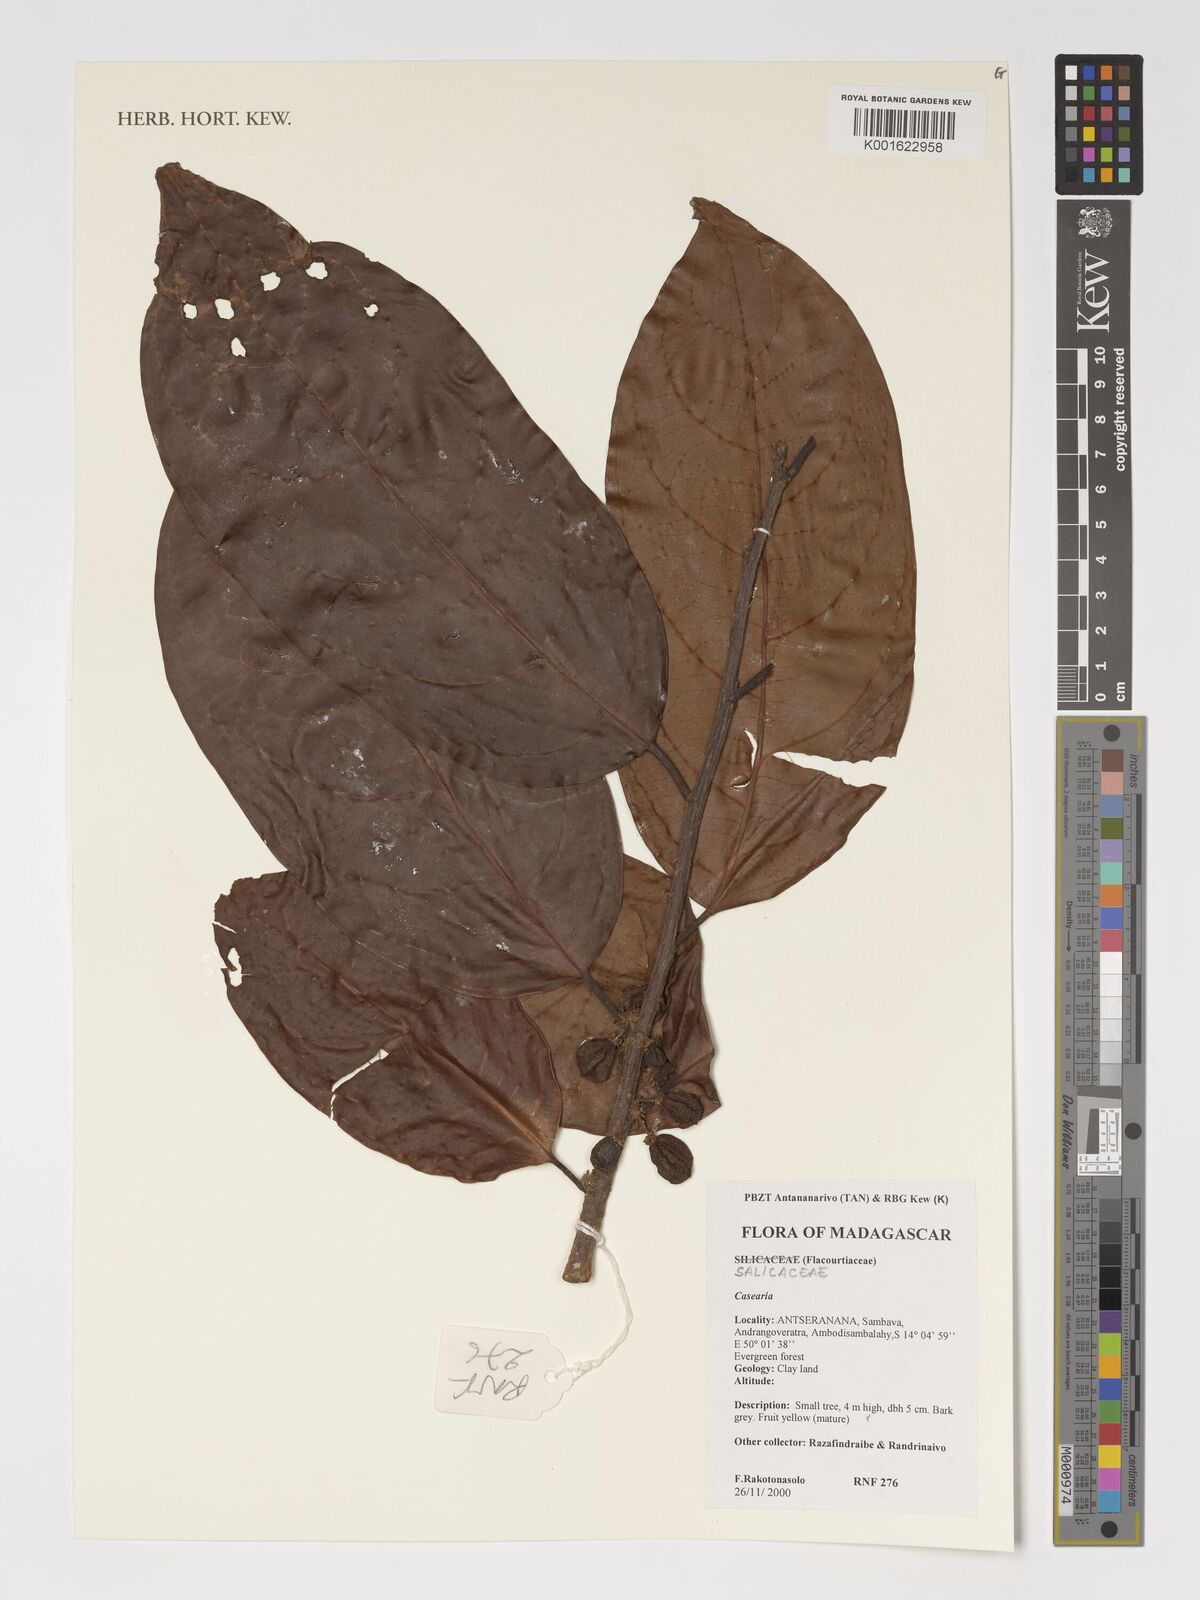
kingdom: Plantae
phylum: Tracheophyta
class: Magnoliopsida
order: Malpighiales
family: Salicaceae
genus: Casearia
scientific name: Casearia
